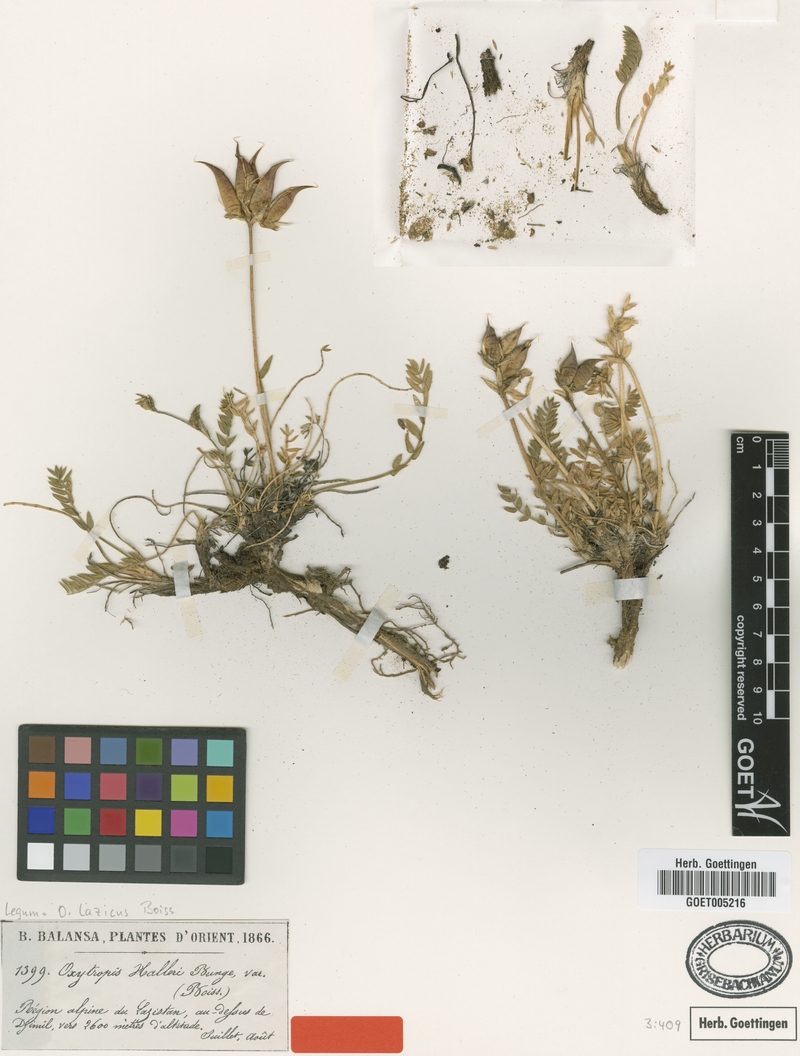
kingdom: Plantae
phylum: Tracheophyta
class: Magnoliopsida
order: Fabales
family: Fabaceae
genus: Oxytropis
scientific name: Oxytropis lazica
